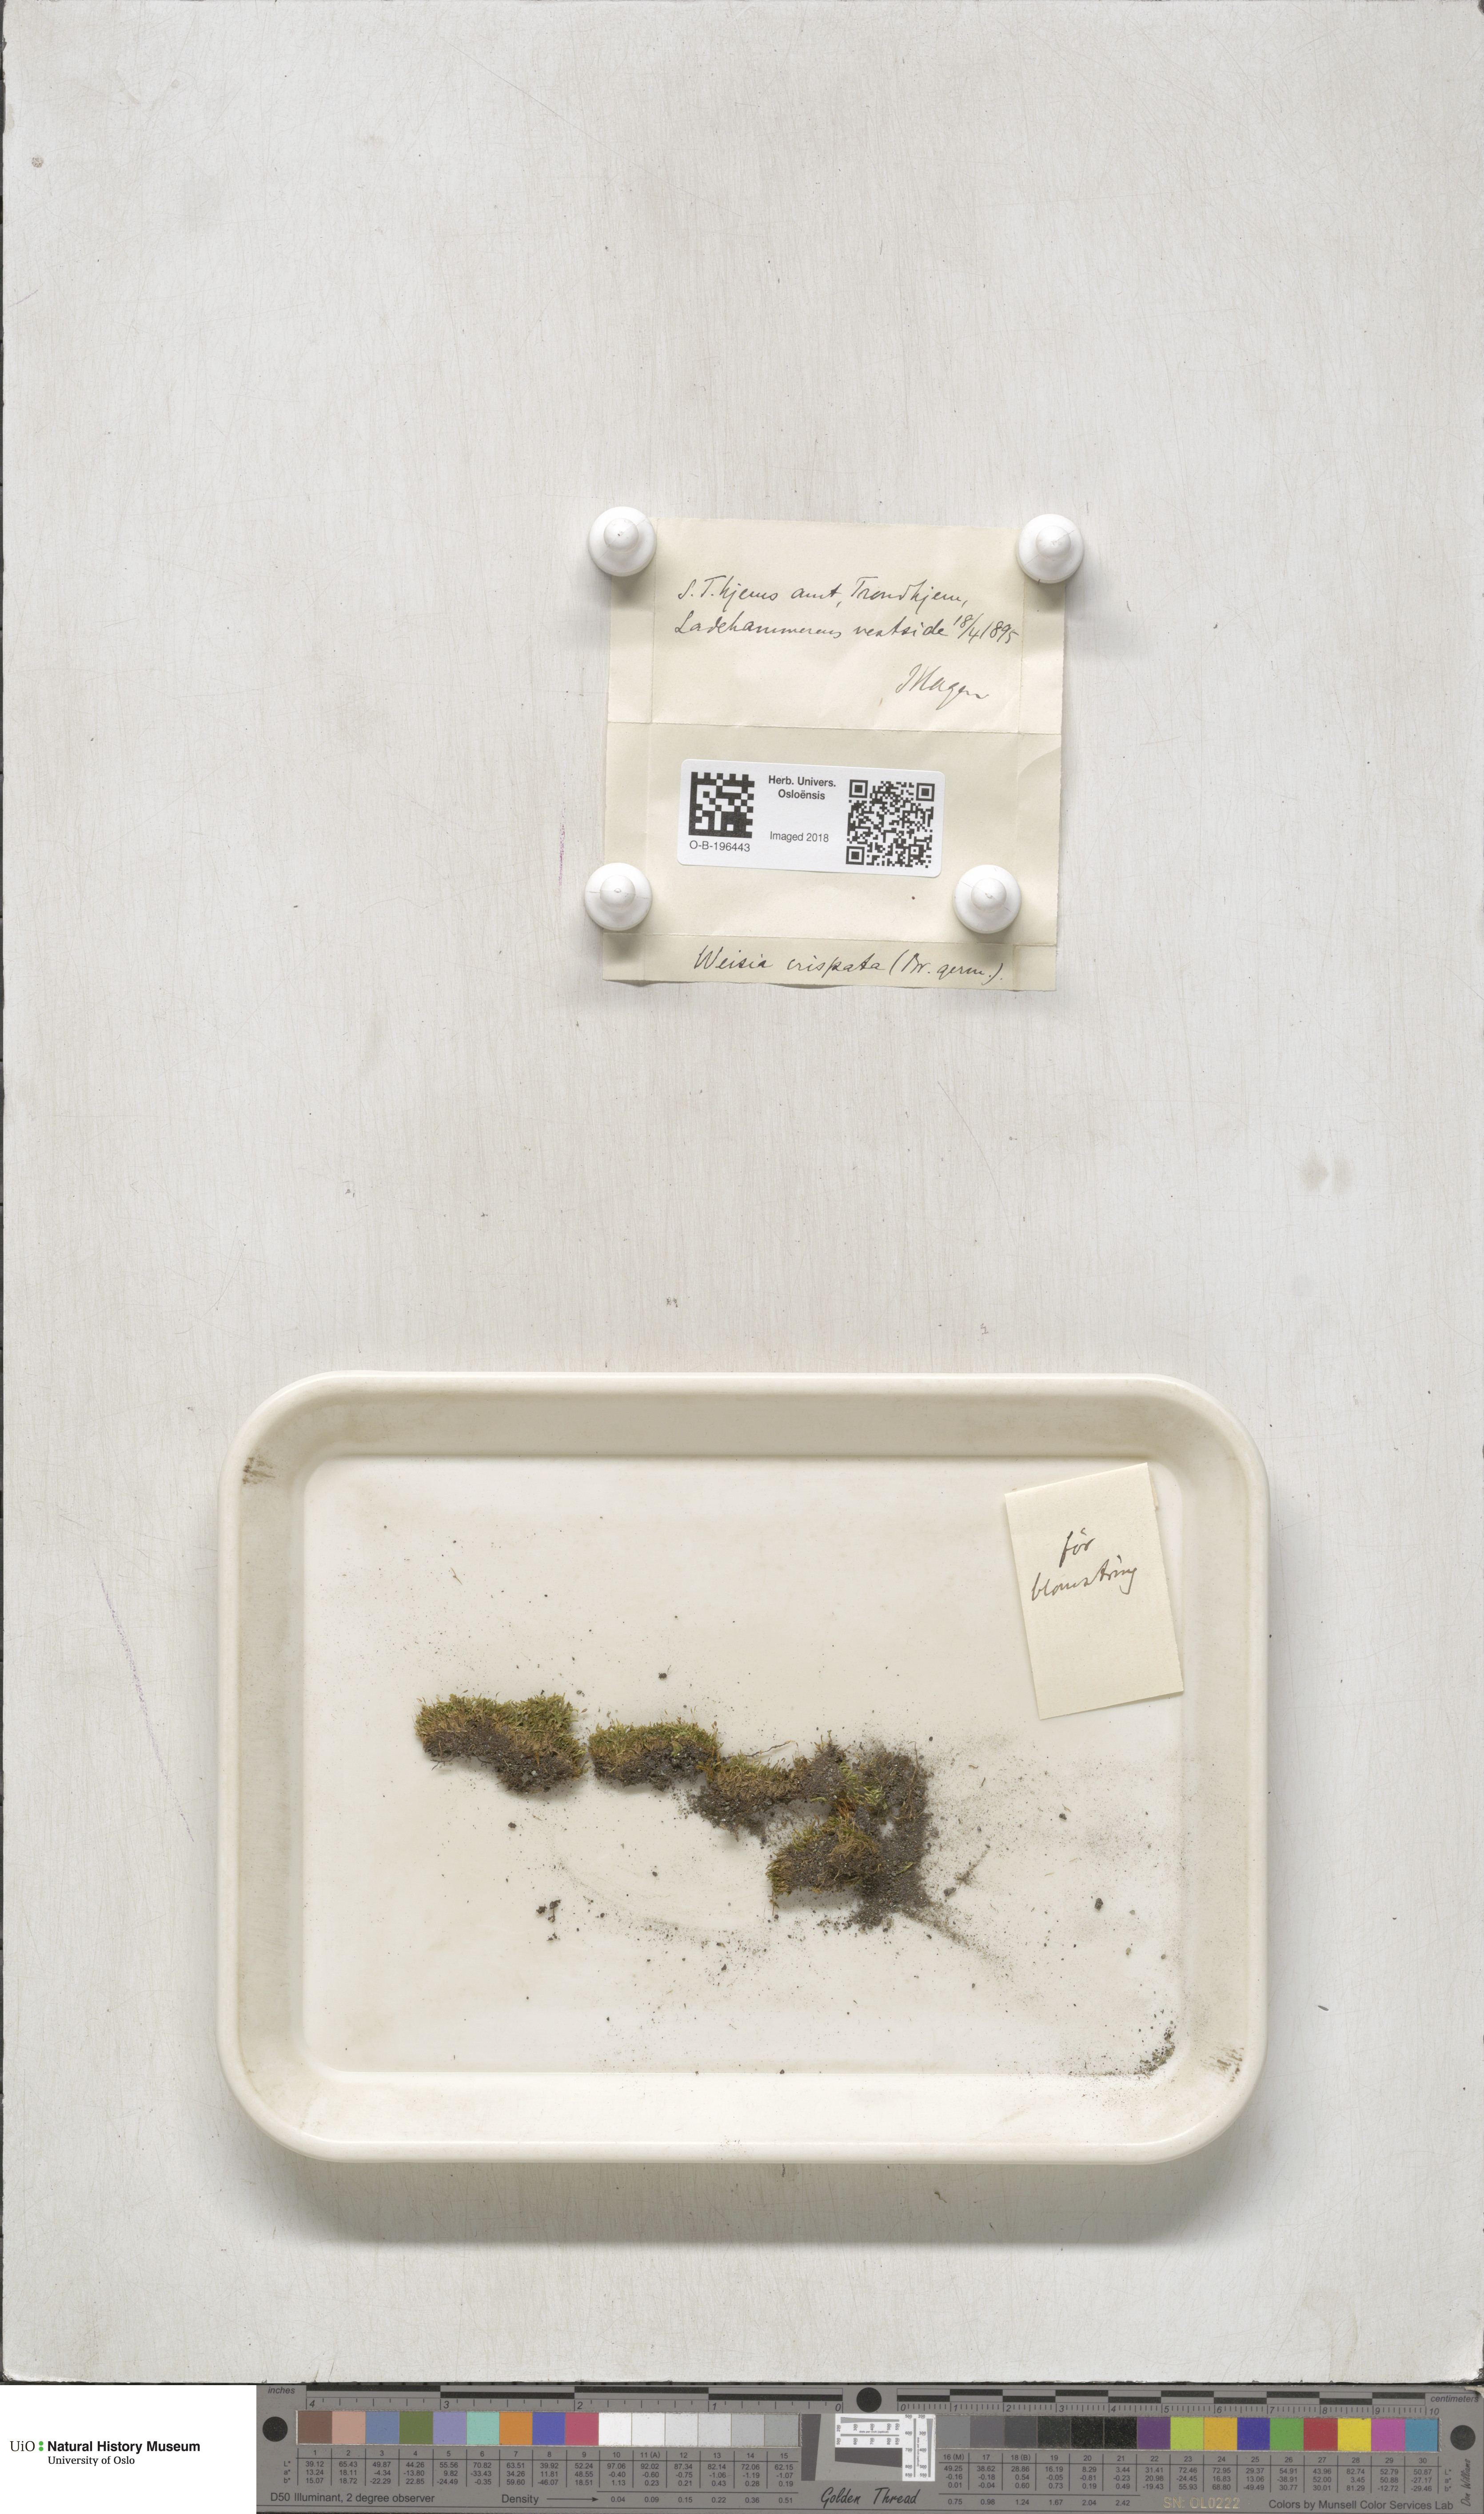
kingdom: Plantae
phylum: Bryophyta
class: Bryopsida
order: Pottiales
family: Pottiaceae
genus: Weissia
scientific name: Weissia controversa
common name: Green-tufted stubble moss
